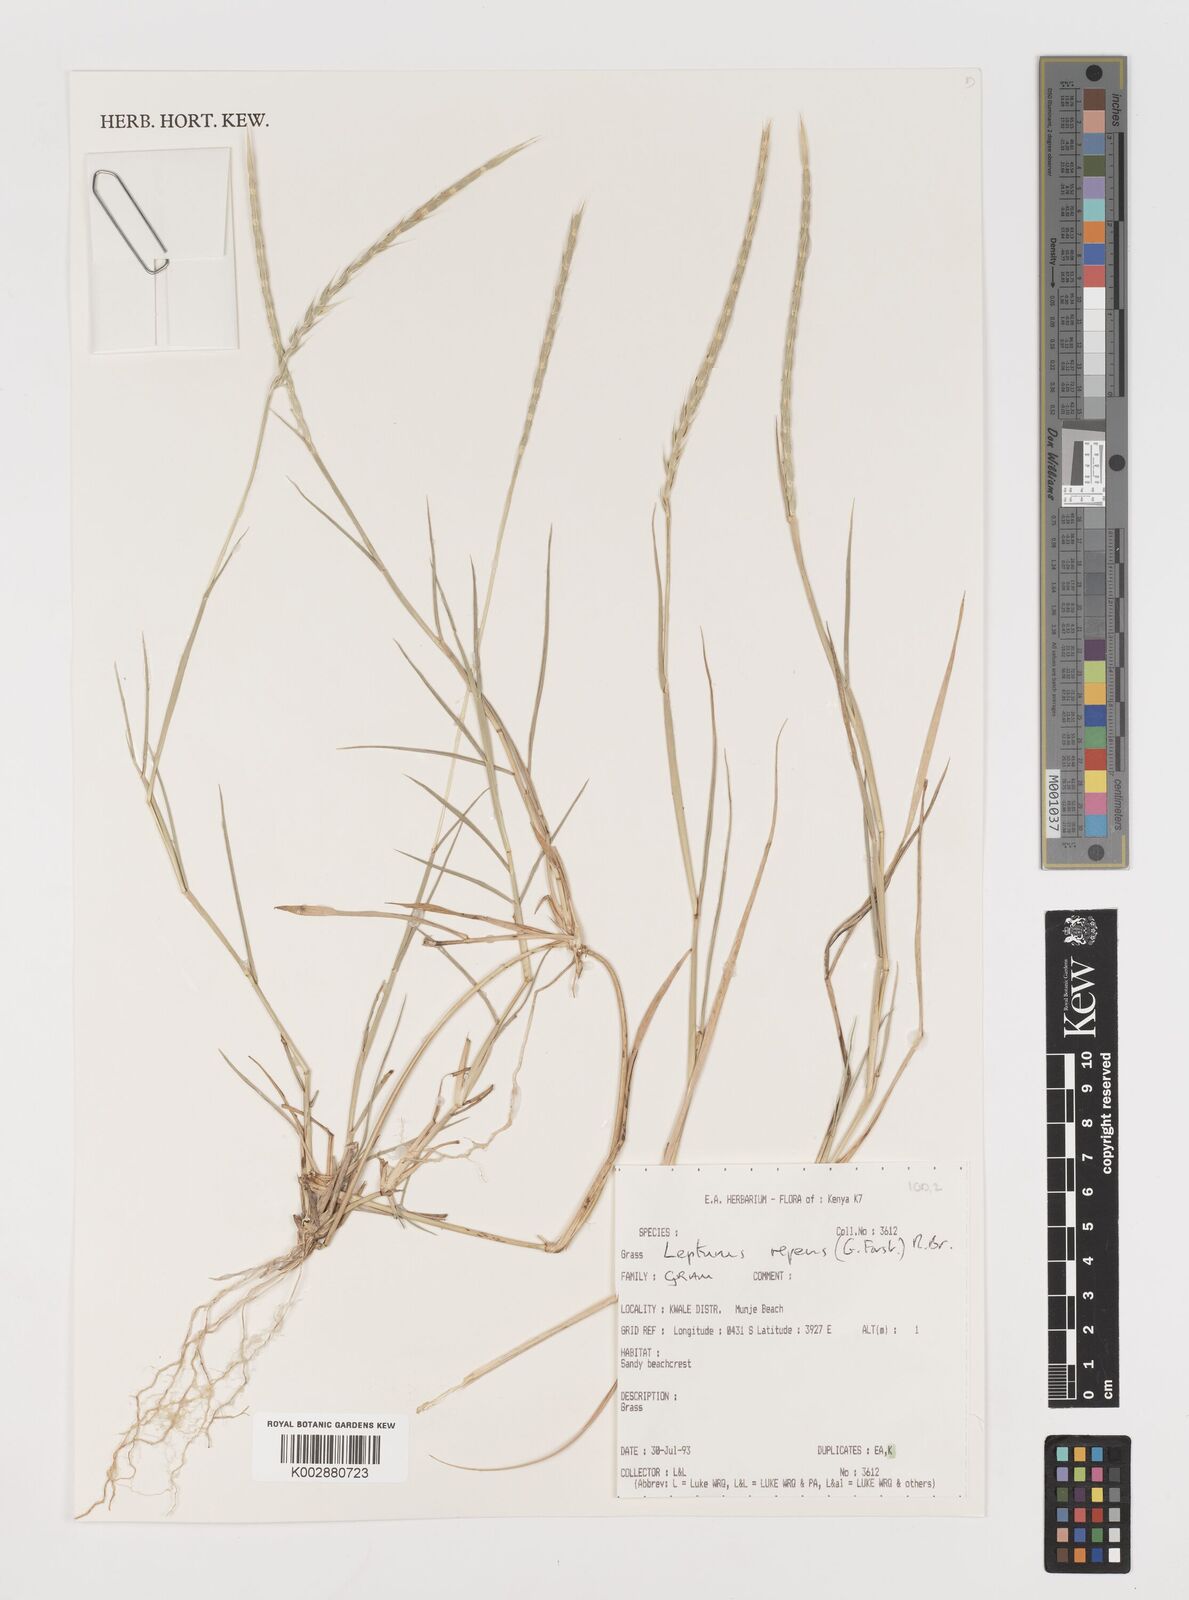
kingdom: Plantae
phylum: Tracheophyta
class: Liliopsida
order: Poales
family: Poaceae
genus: Lepturus
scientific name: Lepturus repens
